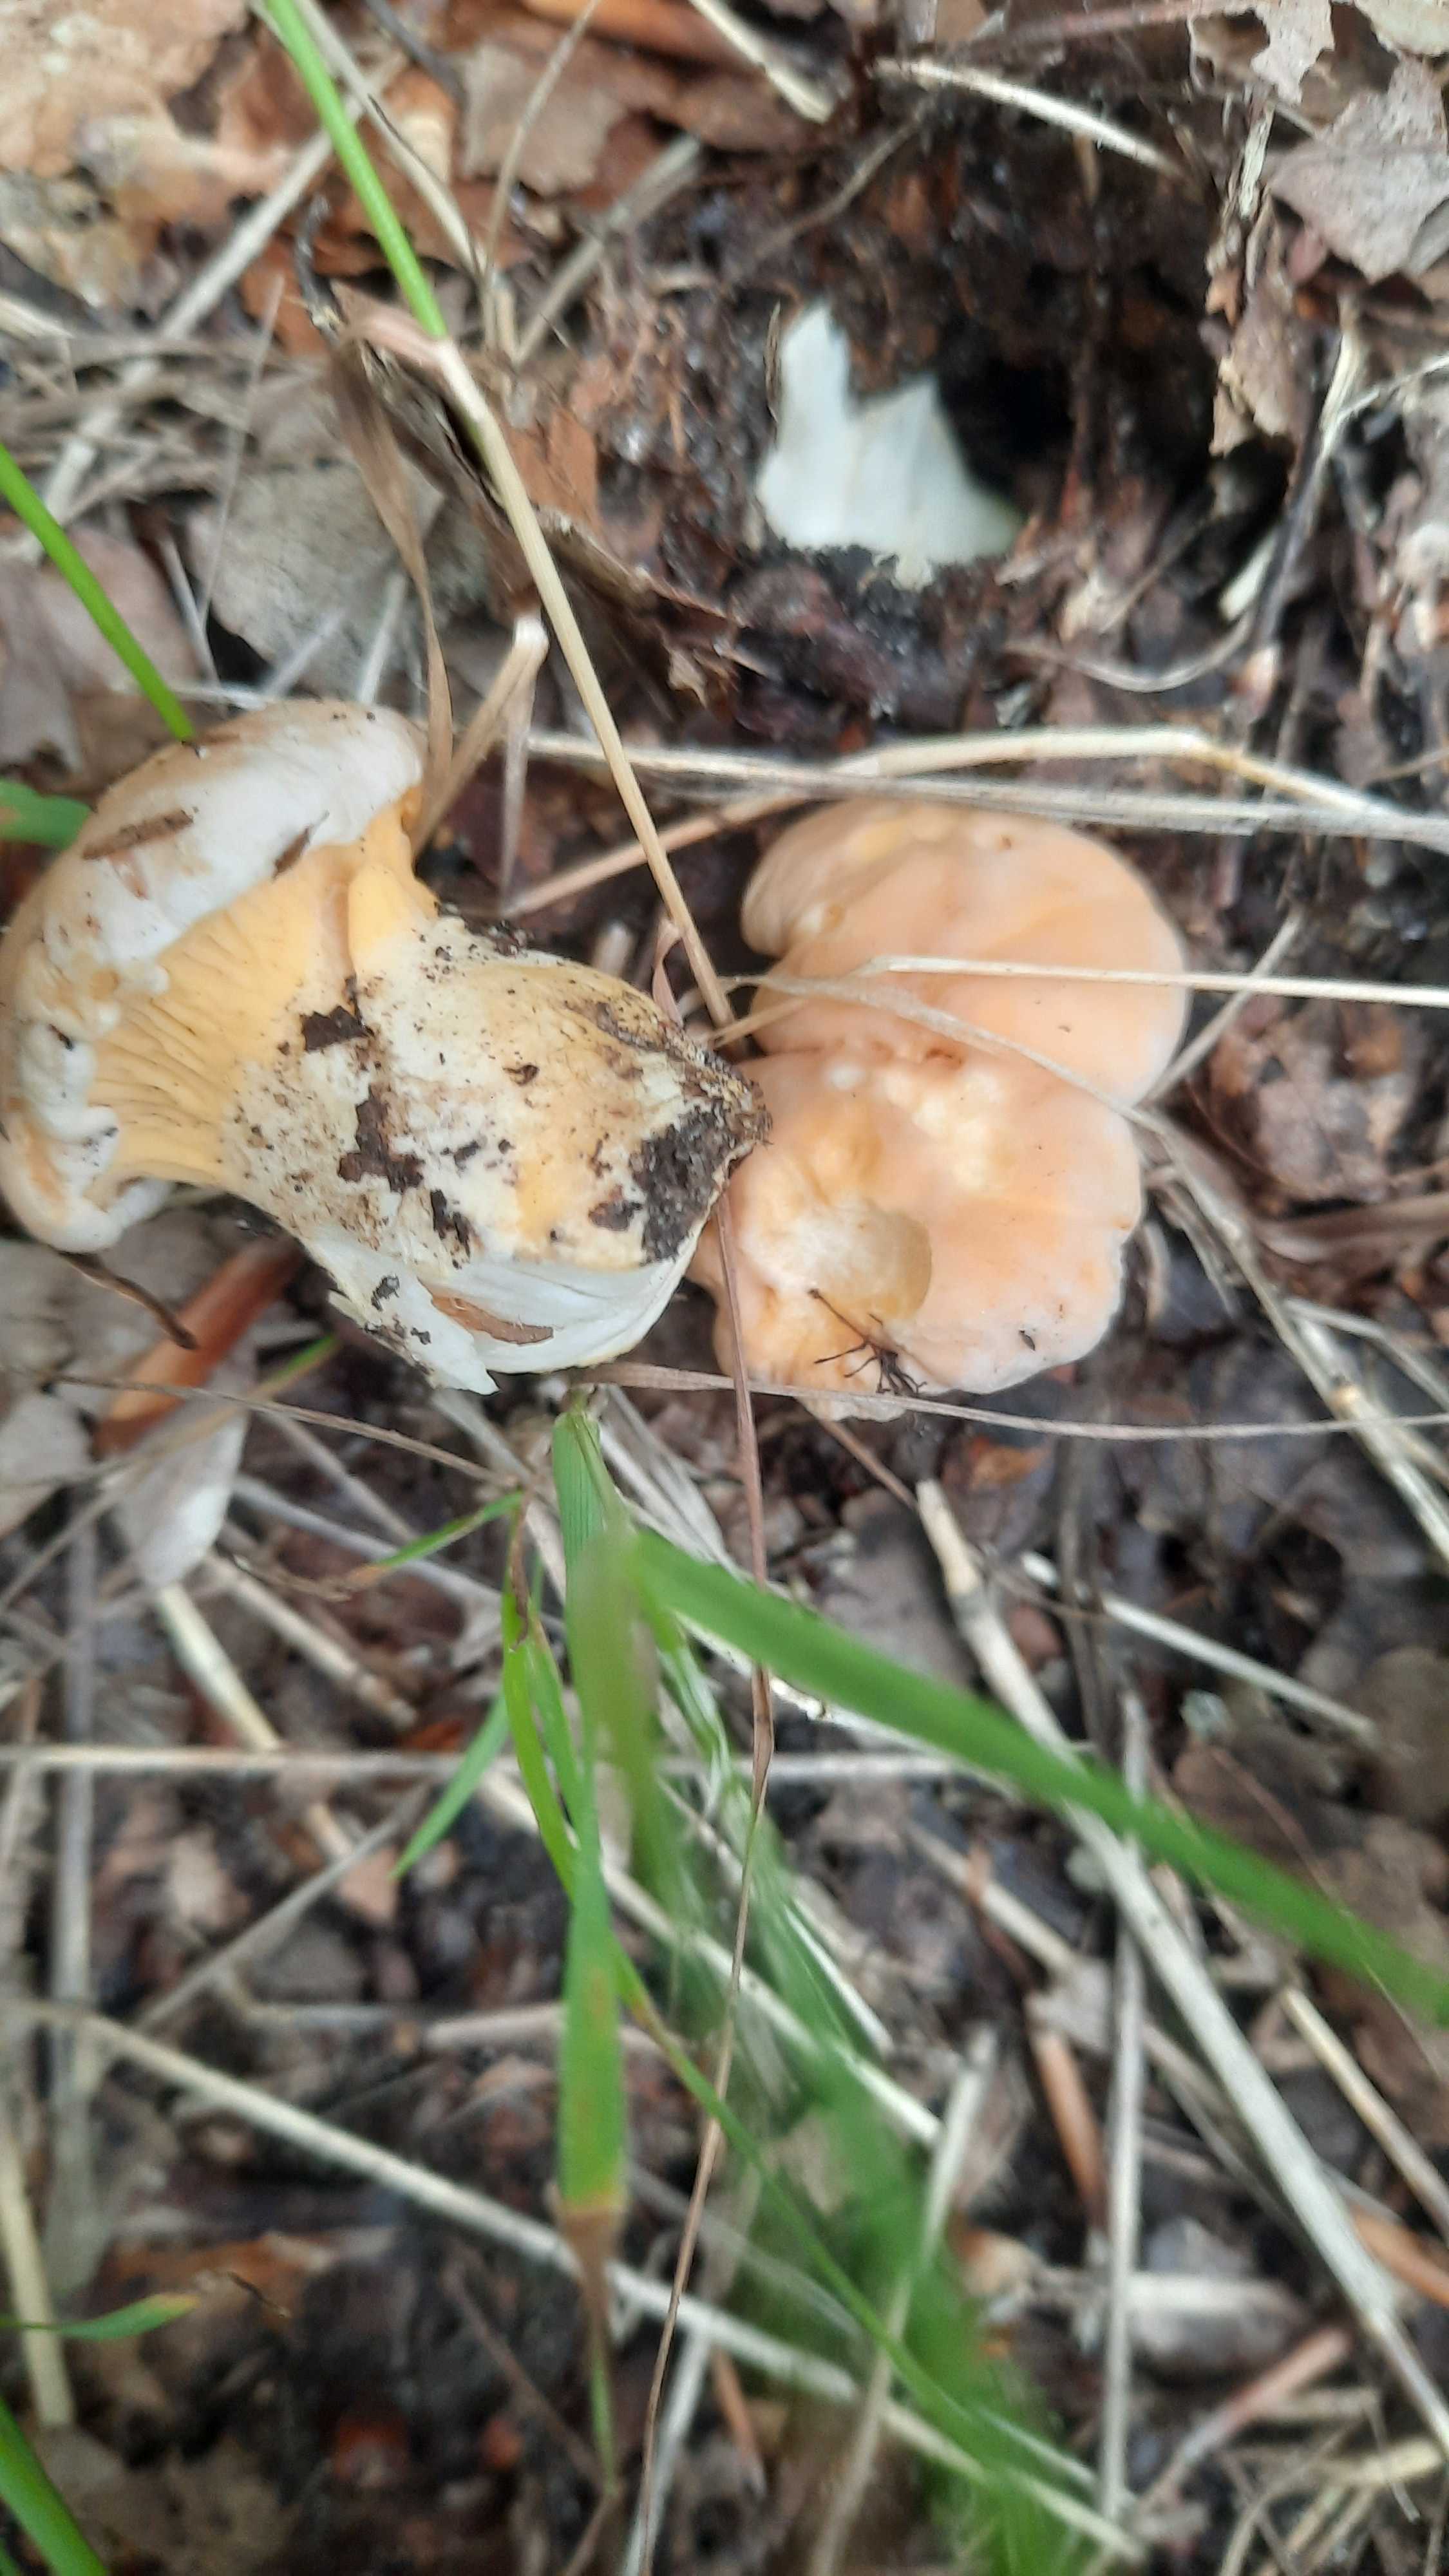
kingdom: Fungi
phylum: Basidiomycota
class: Agaricomycetes
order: Cantharellales
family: Hydnaceae
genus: Cantharellus
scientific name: Cantharellus pallens
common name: bleg kantarel
